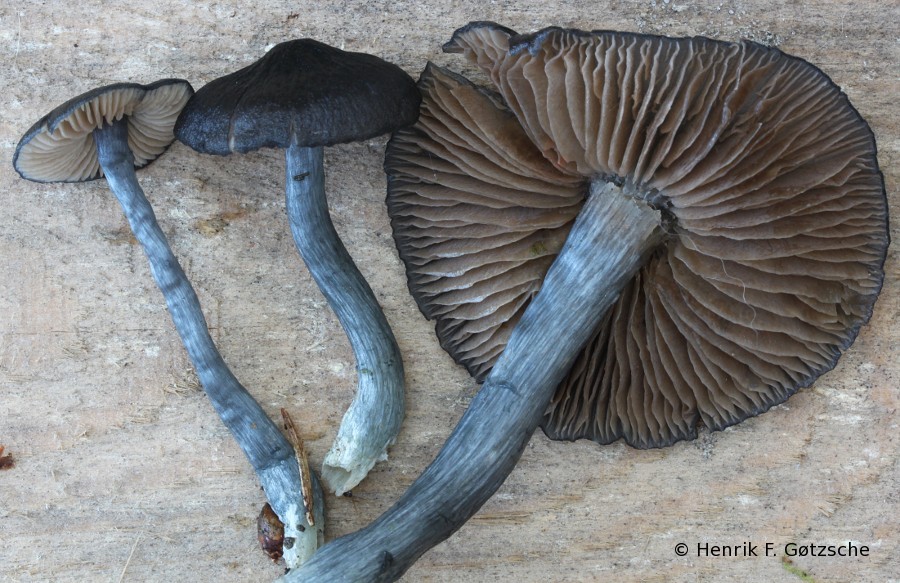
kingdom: Fungi
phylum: Basidiomycota
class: Agaricomycetes
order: Agaricales
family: Entolomataceae
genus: Entocybe
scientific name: Entocybe nitida
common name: stålblå rødblad
